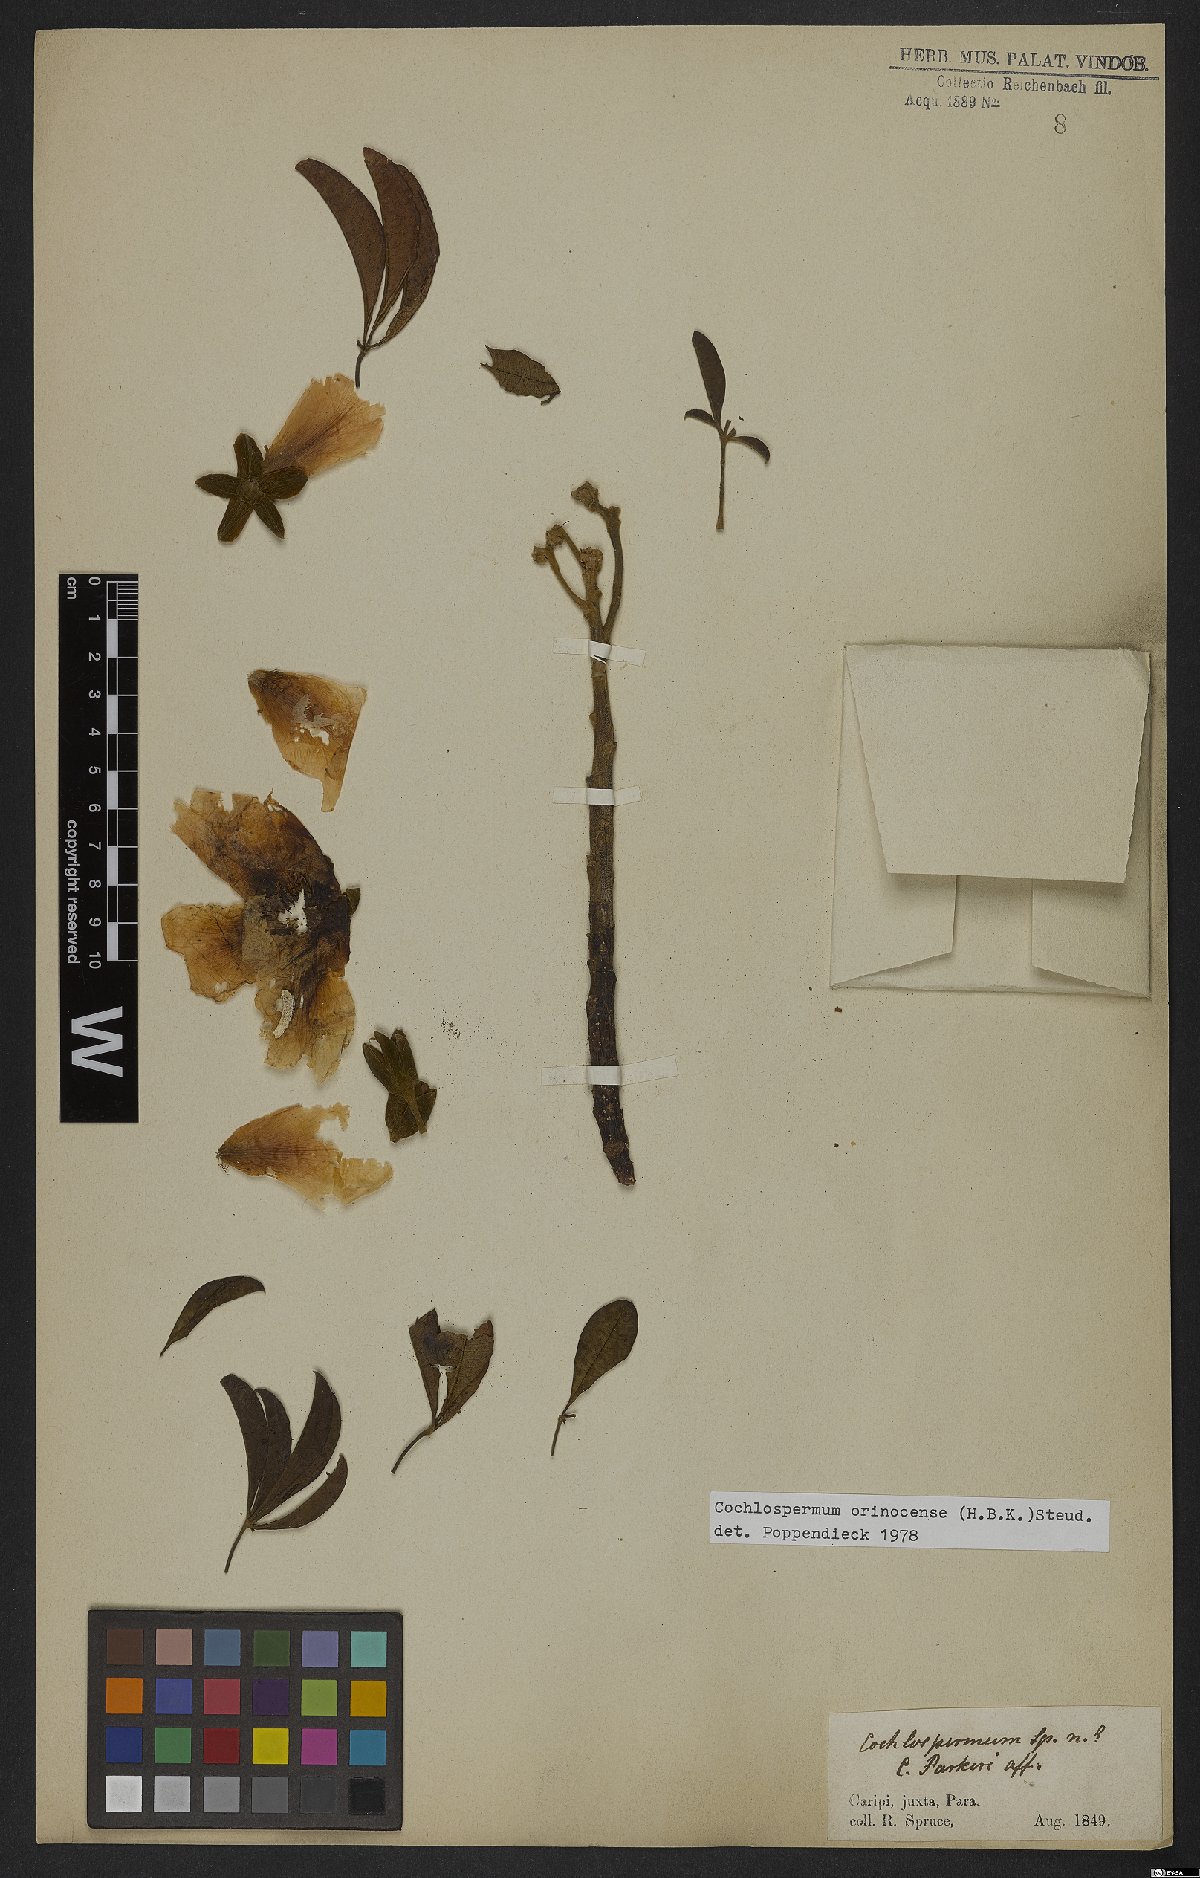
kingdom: Plantae
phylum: Tracheophyta
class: Magnoliopsida
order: Malvales
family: Cochlospermaceae
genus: Cochlospermum
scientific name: Cochlospermum orinocense
